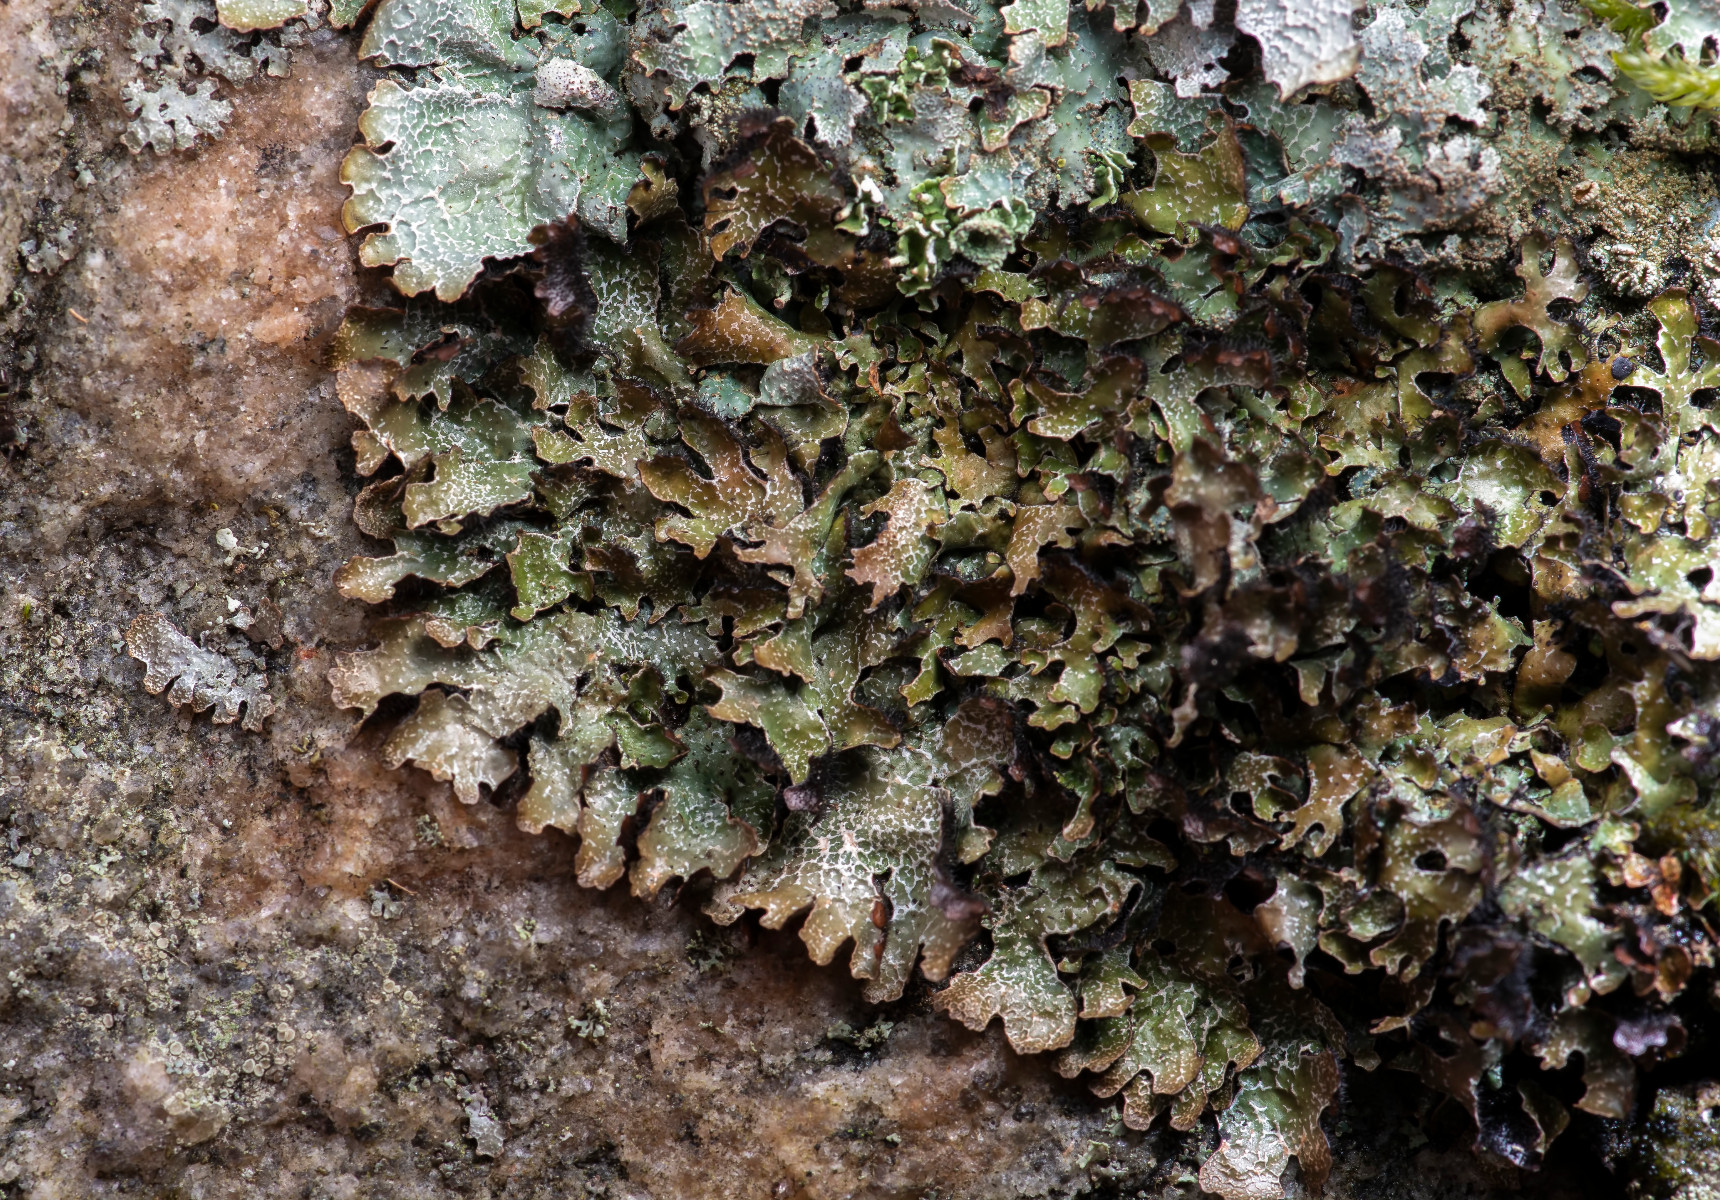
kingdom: Fungi
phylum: Ascomycota
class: Lecanoromycetes
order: Lecanorales
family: Parmeliaceae
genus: Parmelia
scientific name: Parmelia omphalodes
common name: bronze-skållav
